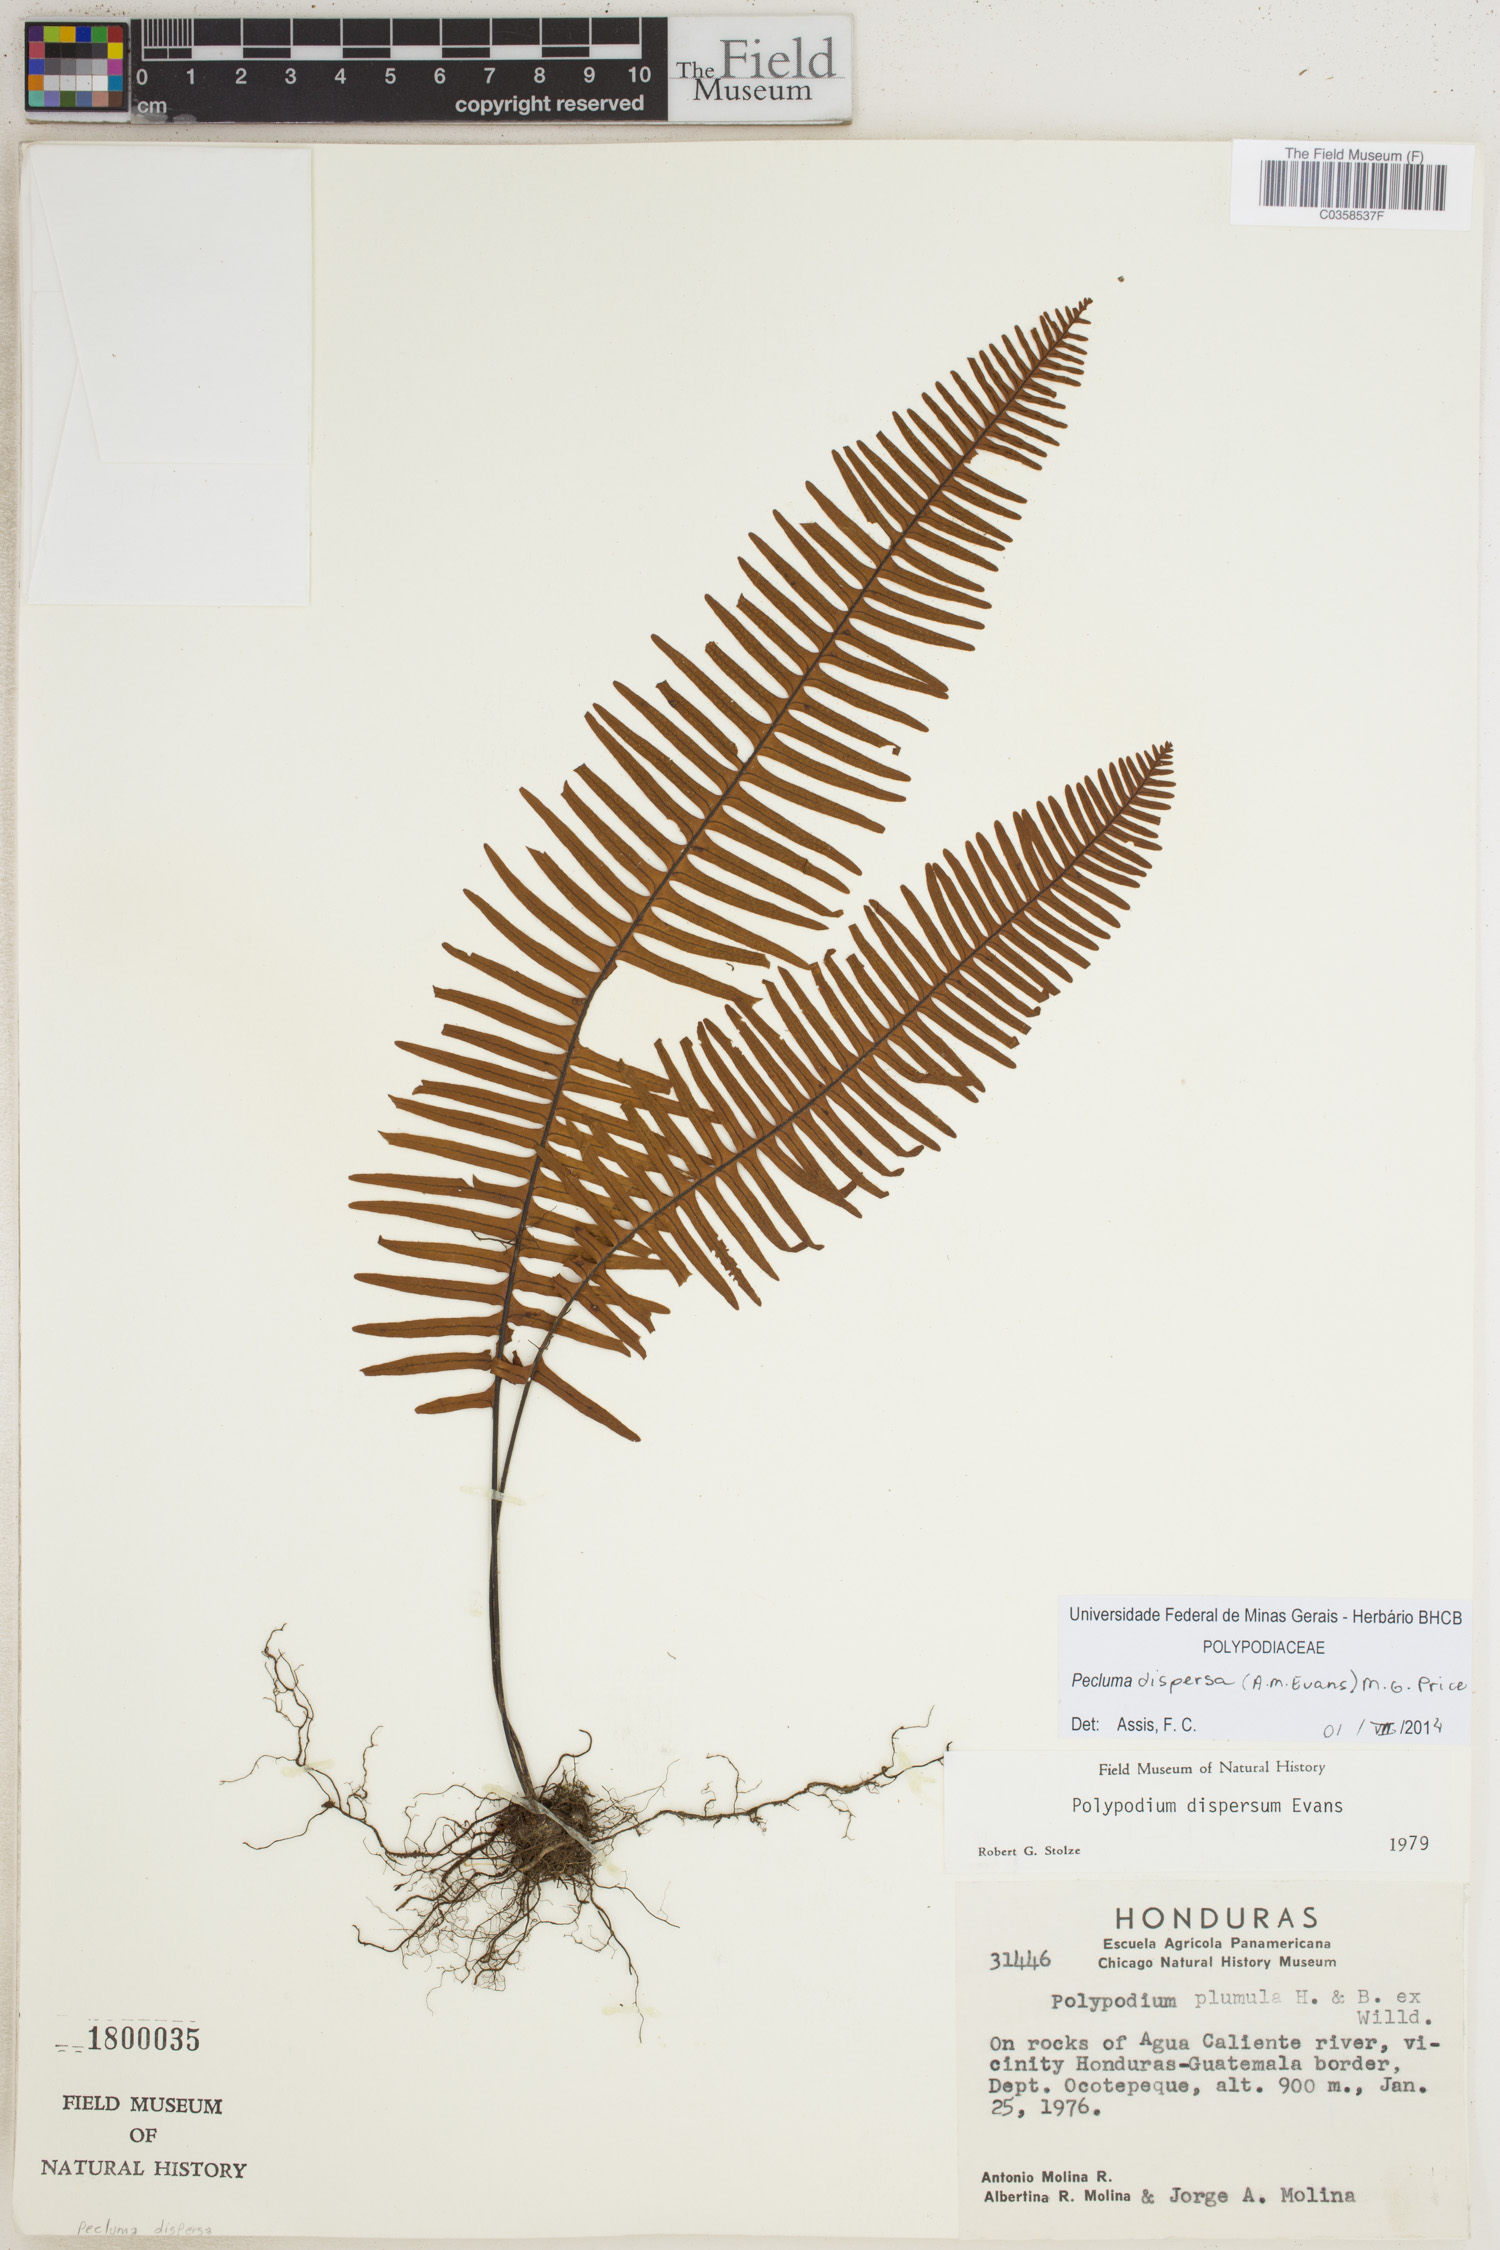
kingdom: Plantae
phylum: Tracheophyta
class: Polypodiopsida
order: Polypodiales
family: Polypodiaceae
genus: Pecluma
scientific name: Pecluma dispersa
